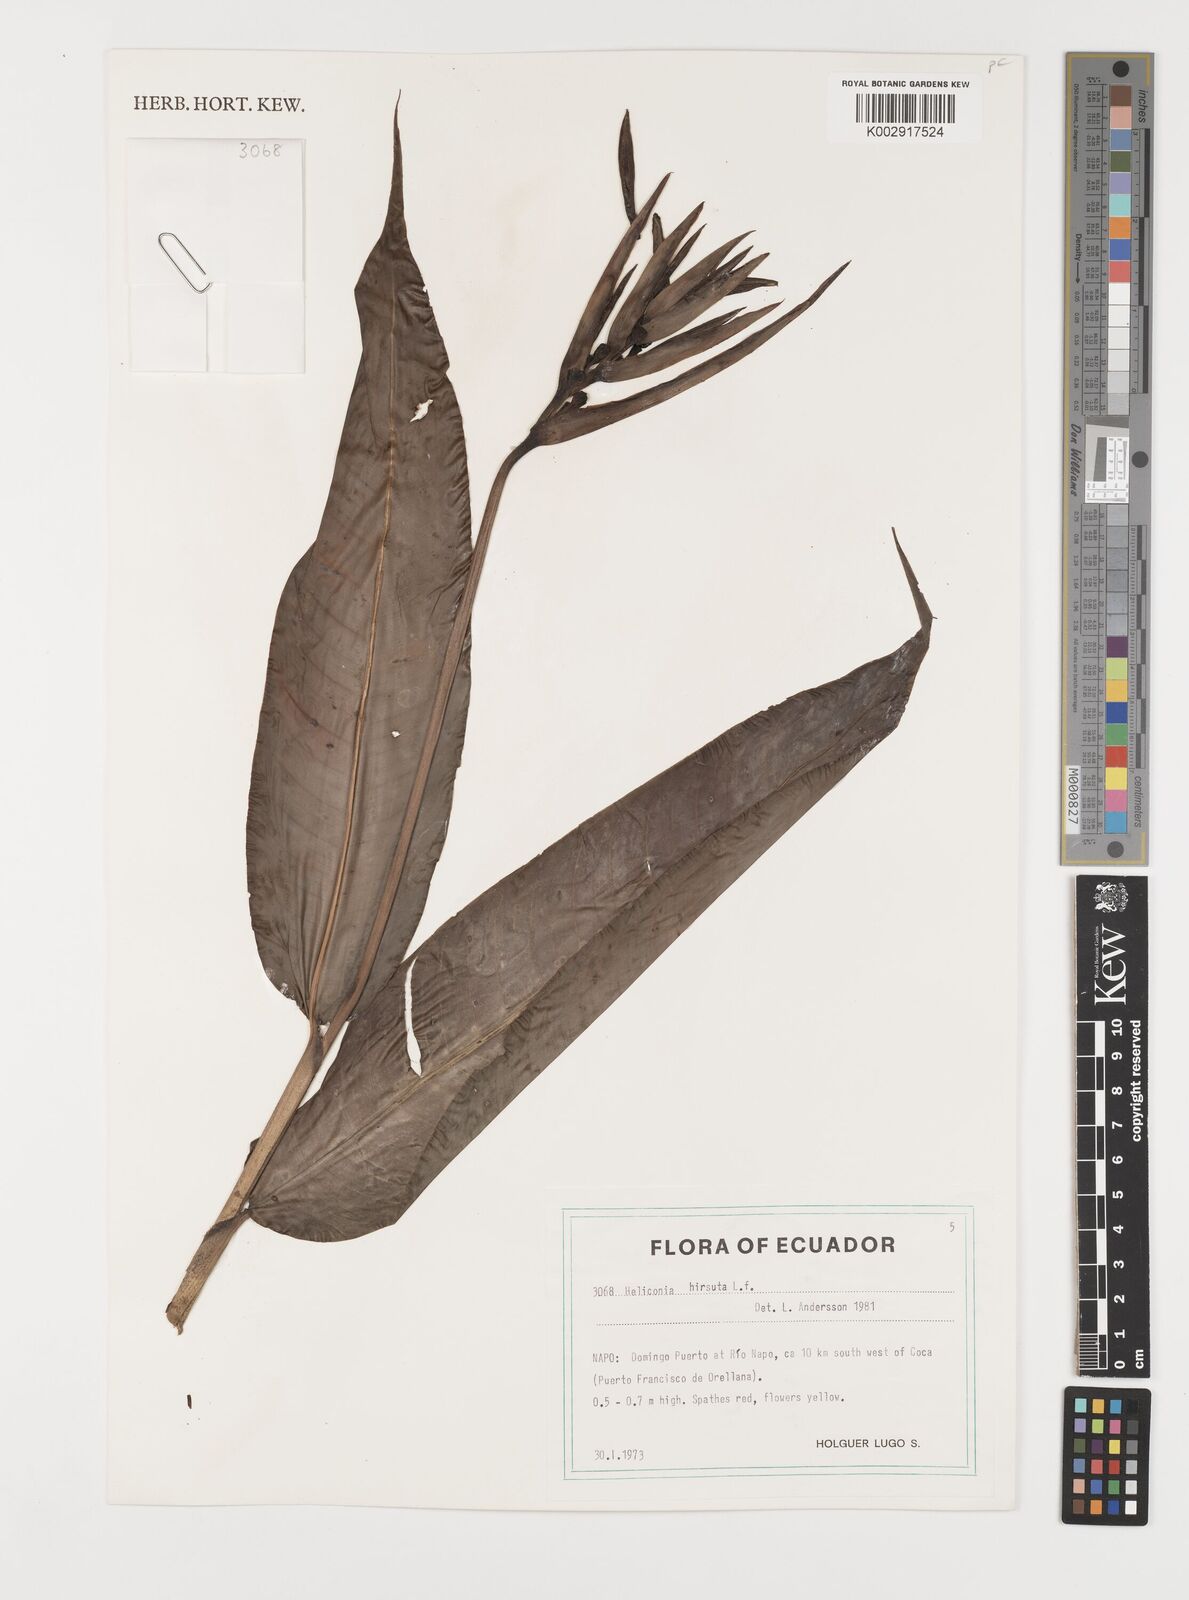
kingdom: Plantae
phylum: Tracheophyta
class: Liliopsida
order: Zingiberales
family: Heliconiaceae
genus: Heliconia
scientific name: Heliconia hirsuta
